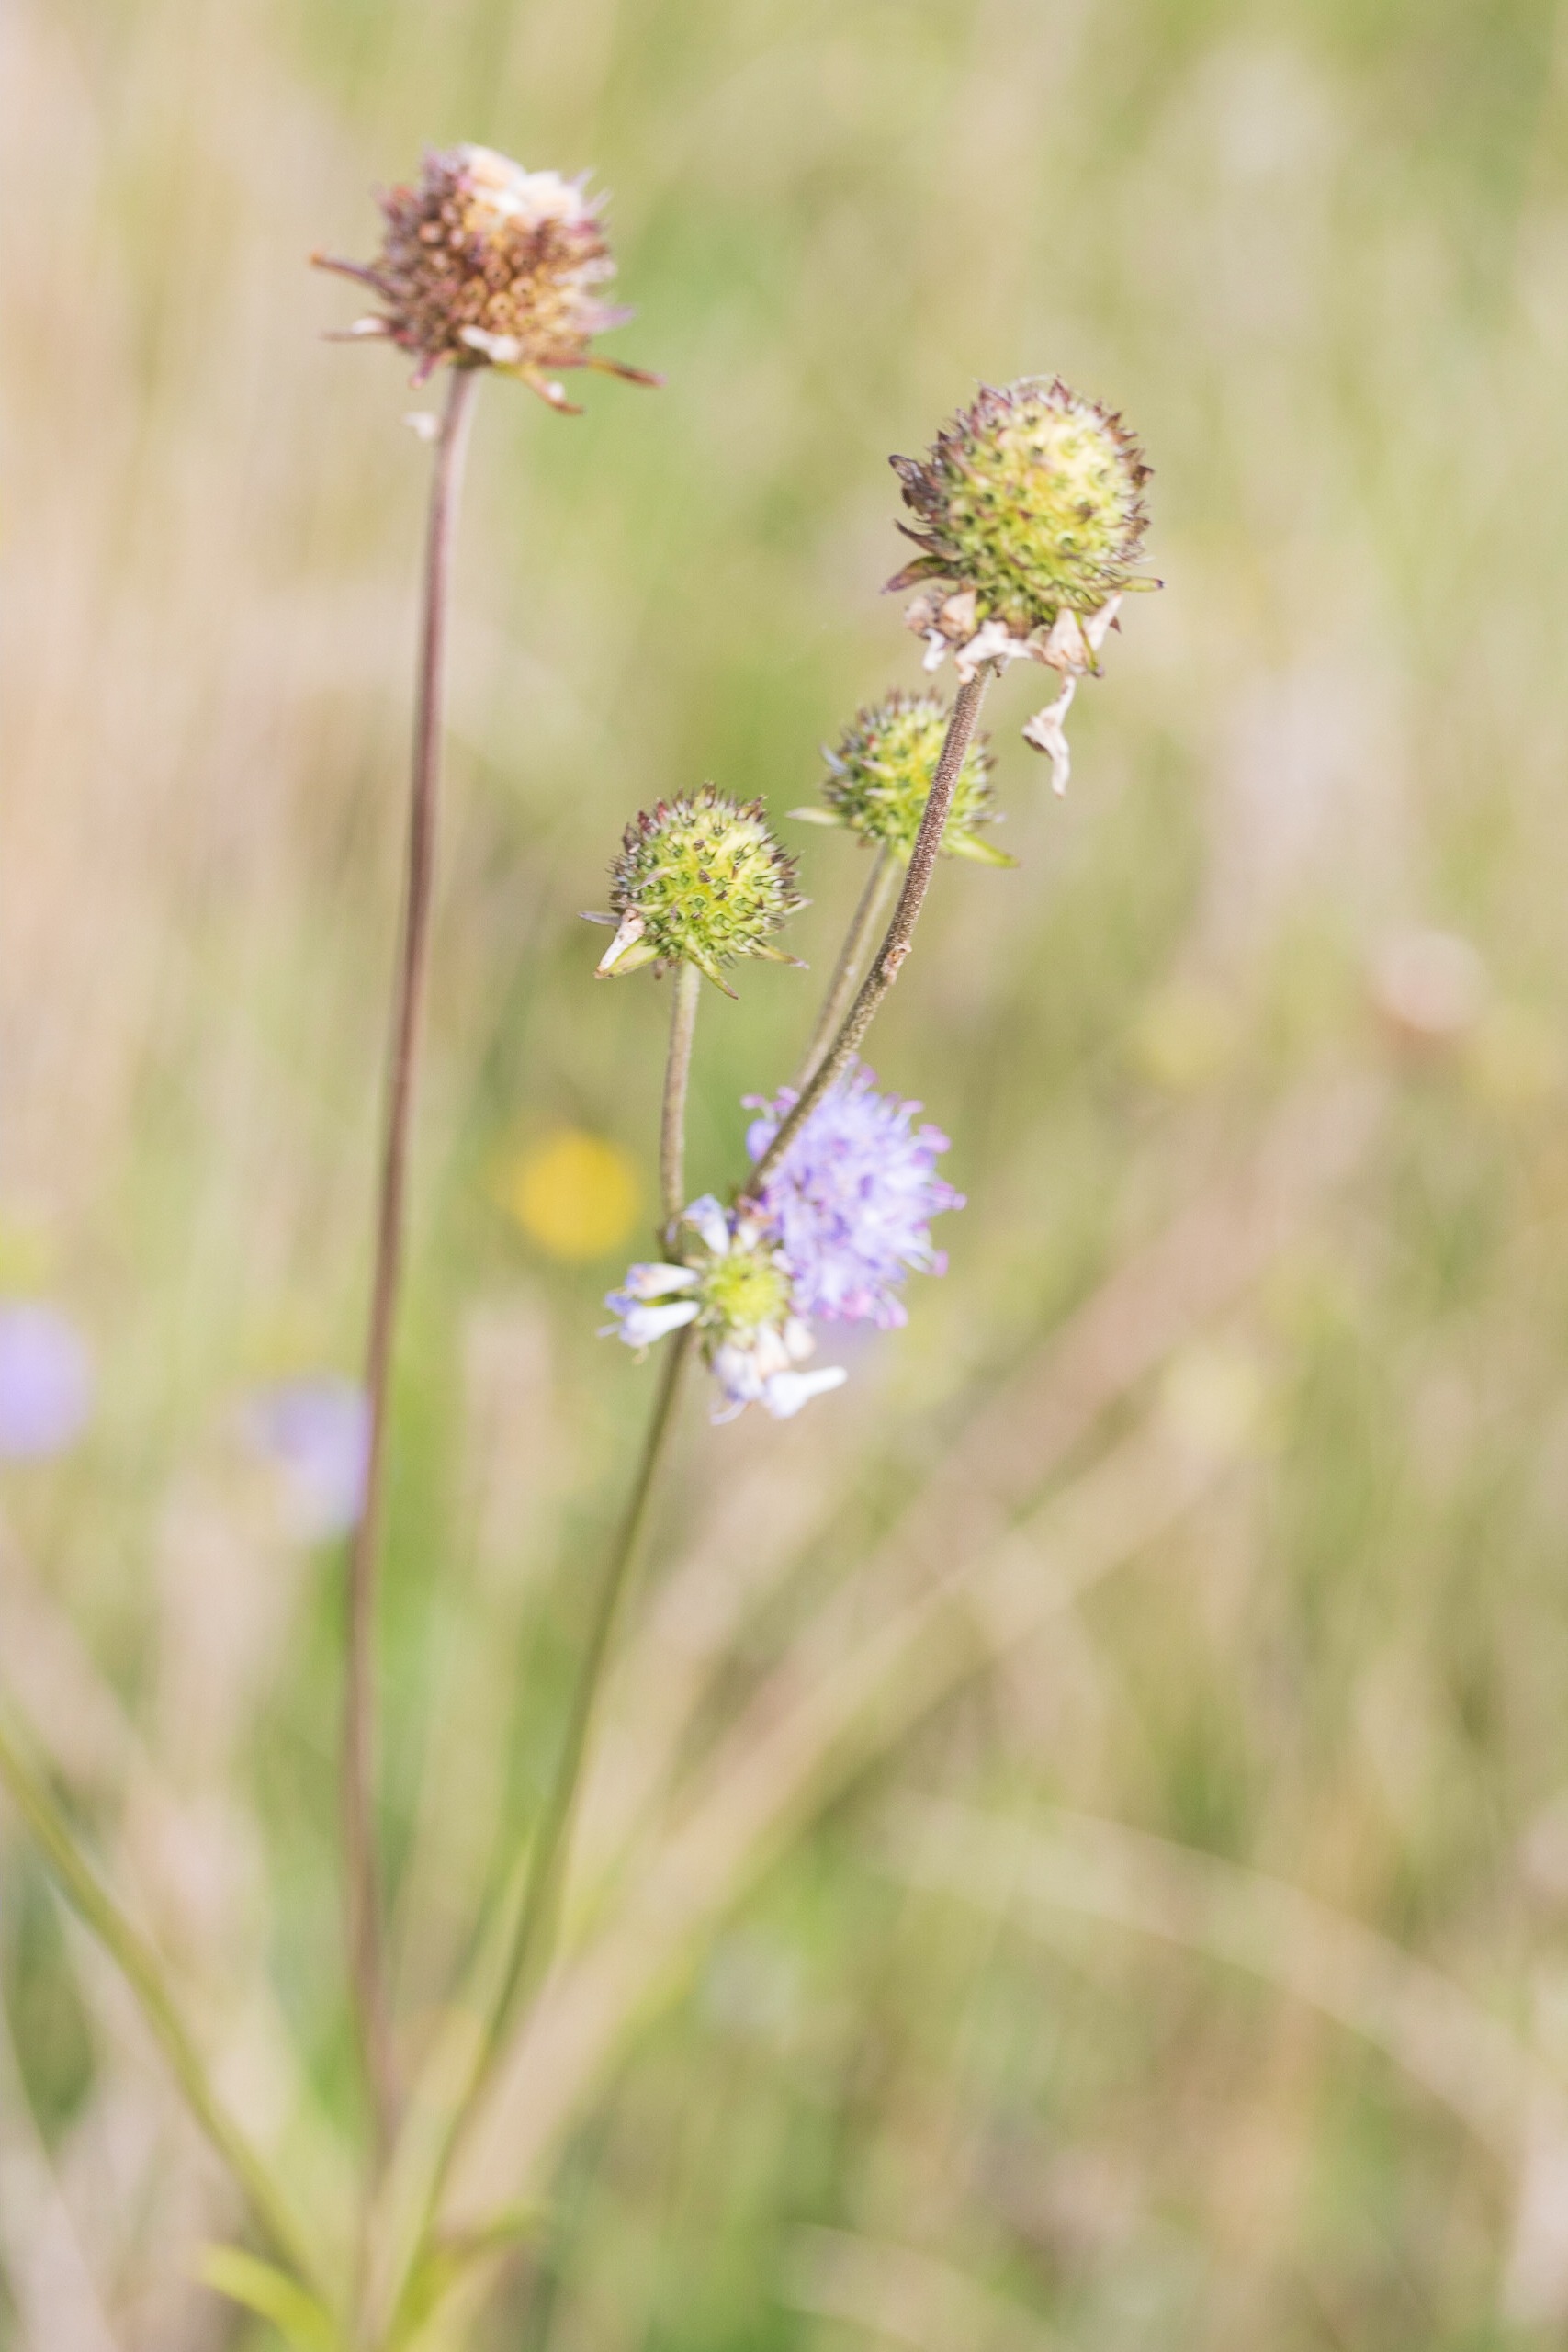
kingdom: Plantae
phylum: Tracheophyta
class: Magnoliopsida
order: Dipsacales
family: Caprifoliaceae
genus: Succisa
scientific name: Succisa pratensis
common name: Djævelsbid
